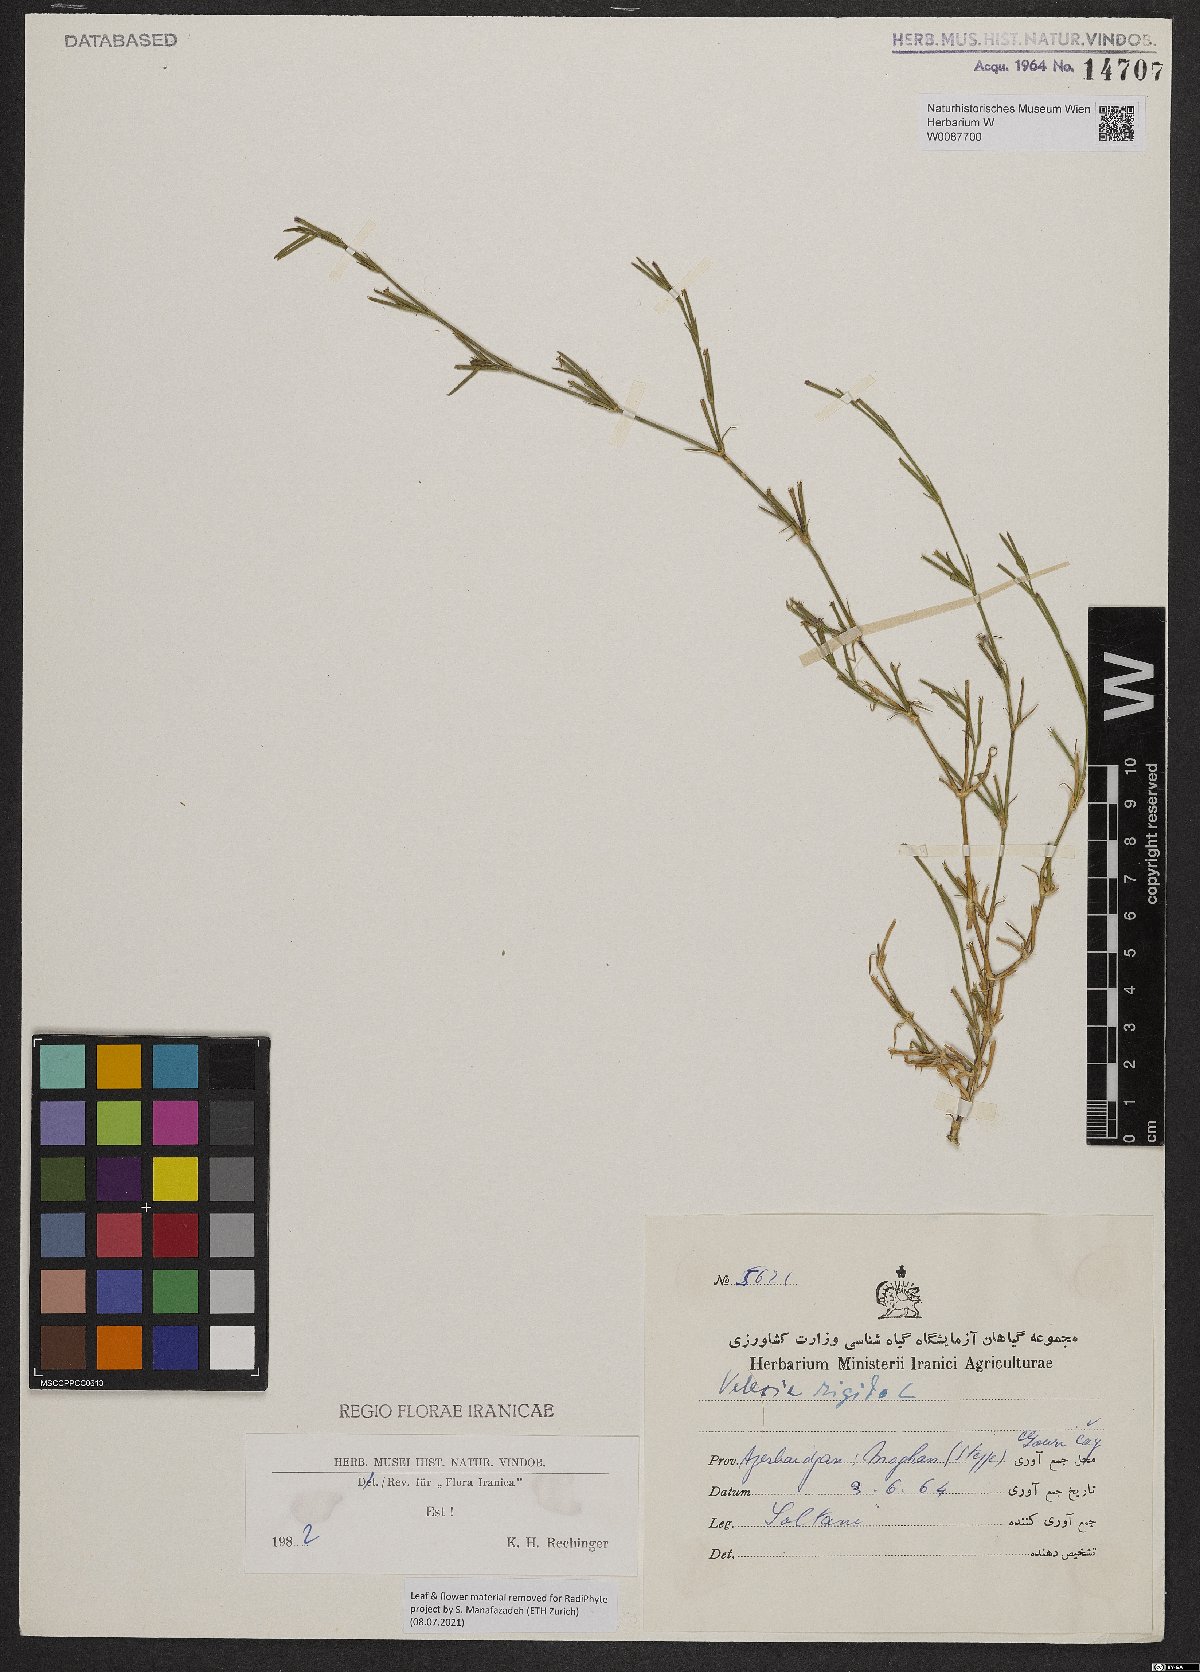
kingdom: Plantae
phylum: Tracheophyta
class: Magnoliopsida
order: Caryophyllales
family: Caryophyllaceae
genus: Dianthus
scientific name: Dianthus nudiflorus
